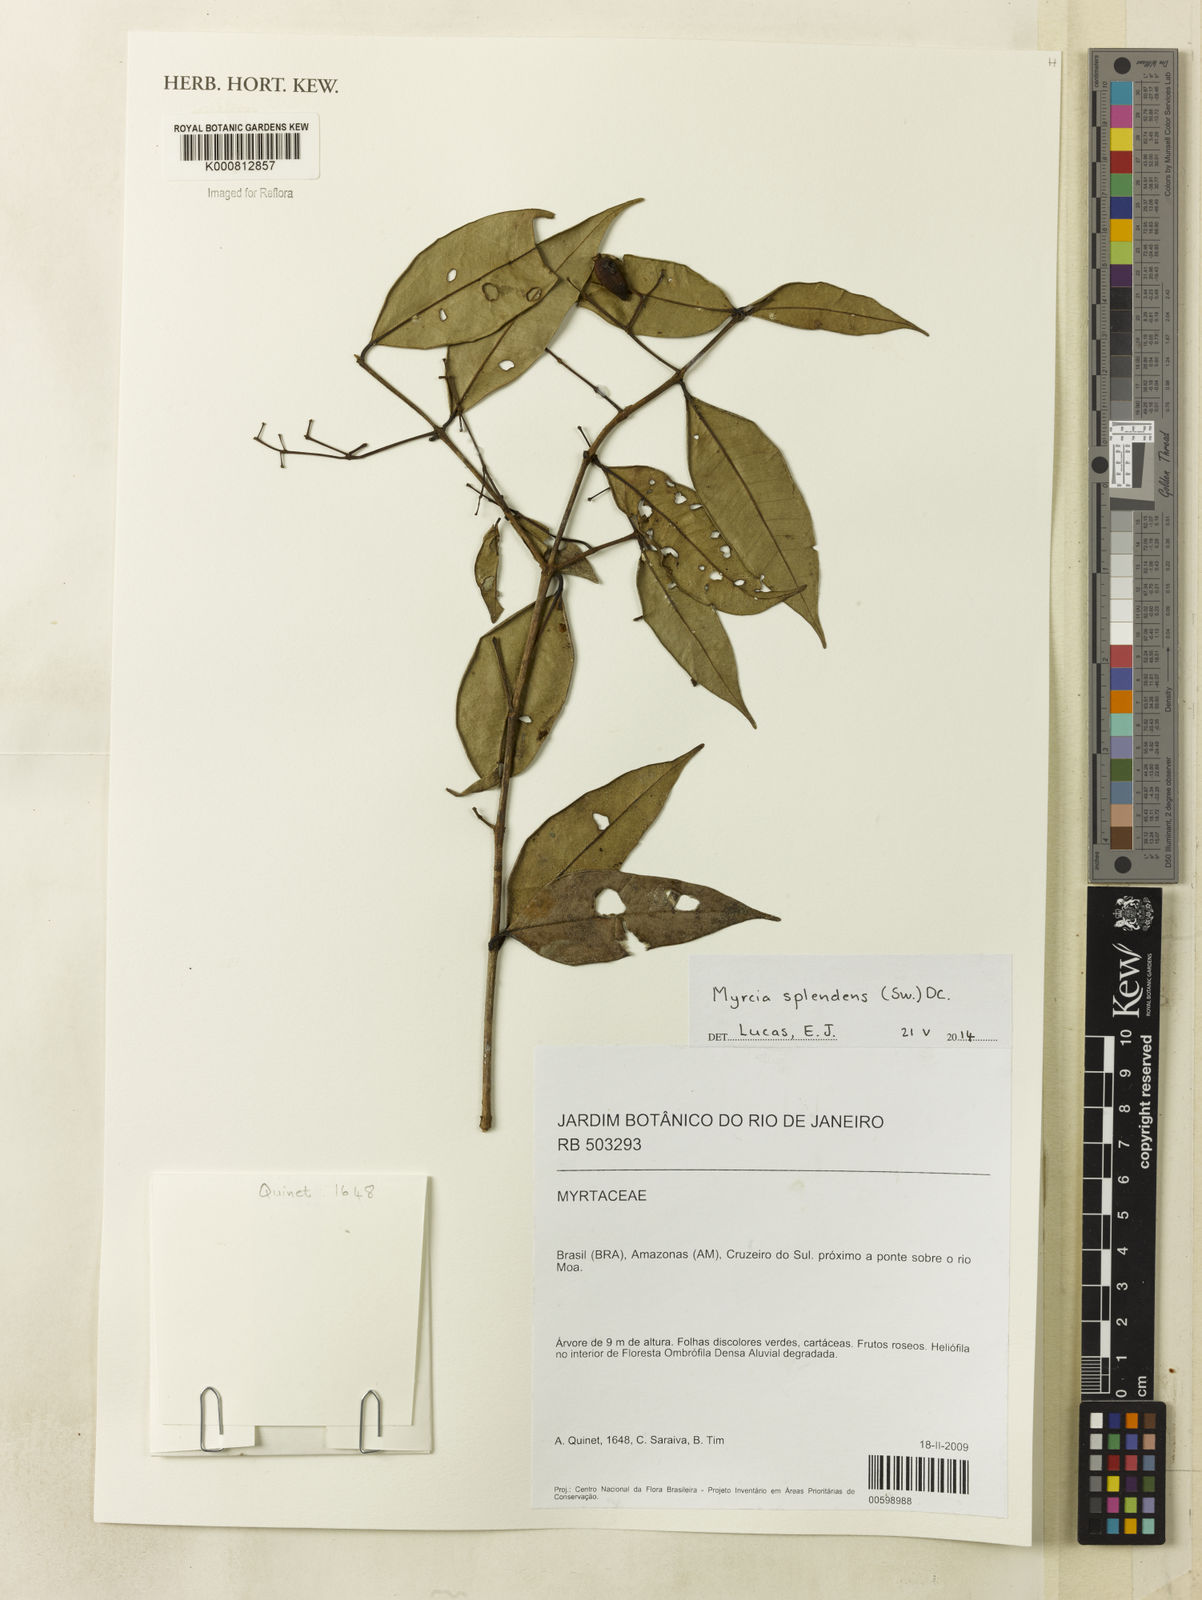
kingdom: Plantae
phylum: Tracheophyta
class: Magnoliopsida
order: Myrtales
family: Myrtaceae
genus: Myrcia
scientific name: Myrcia splendens
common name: Surinam cherry
